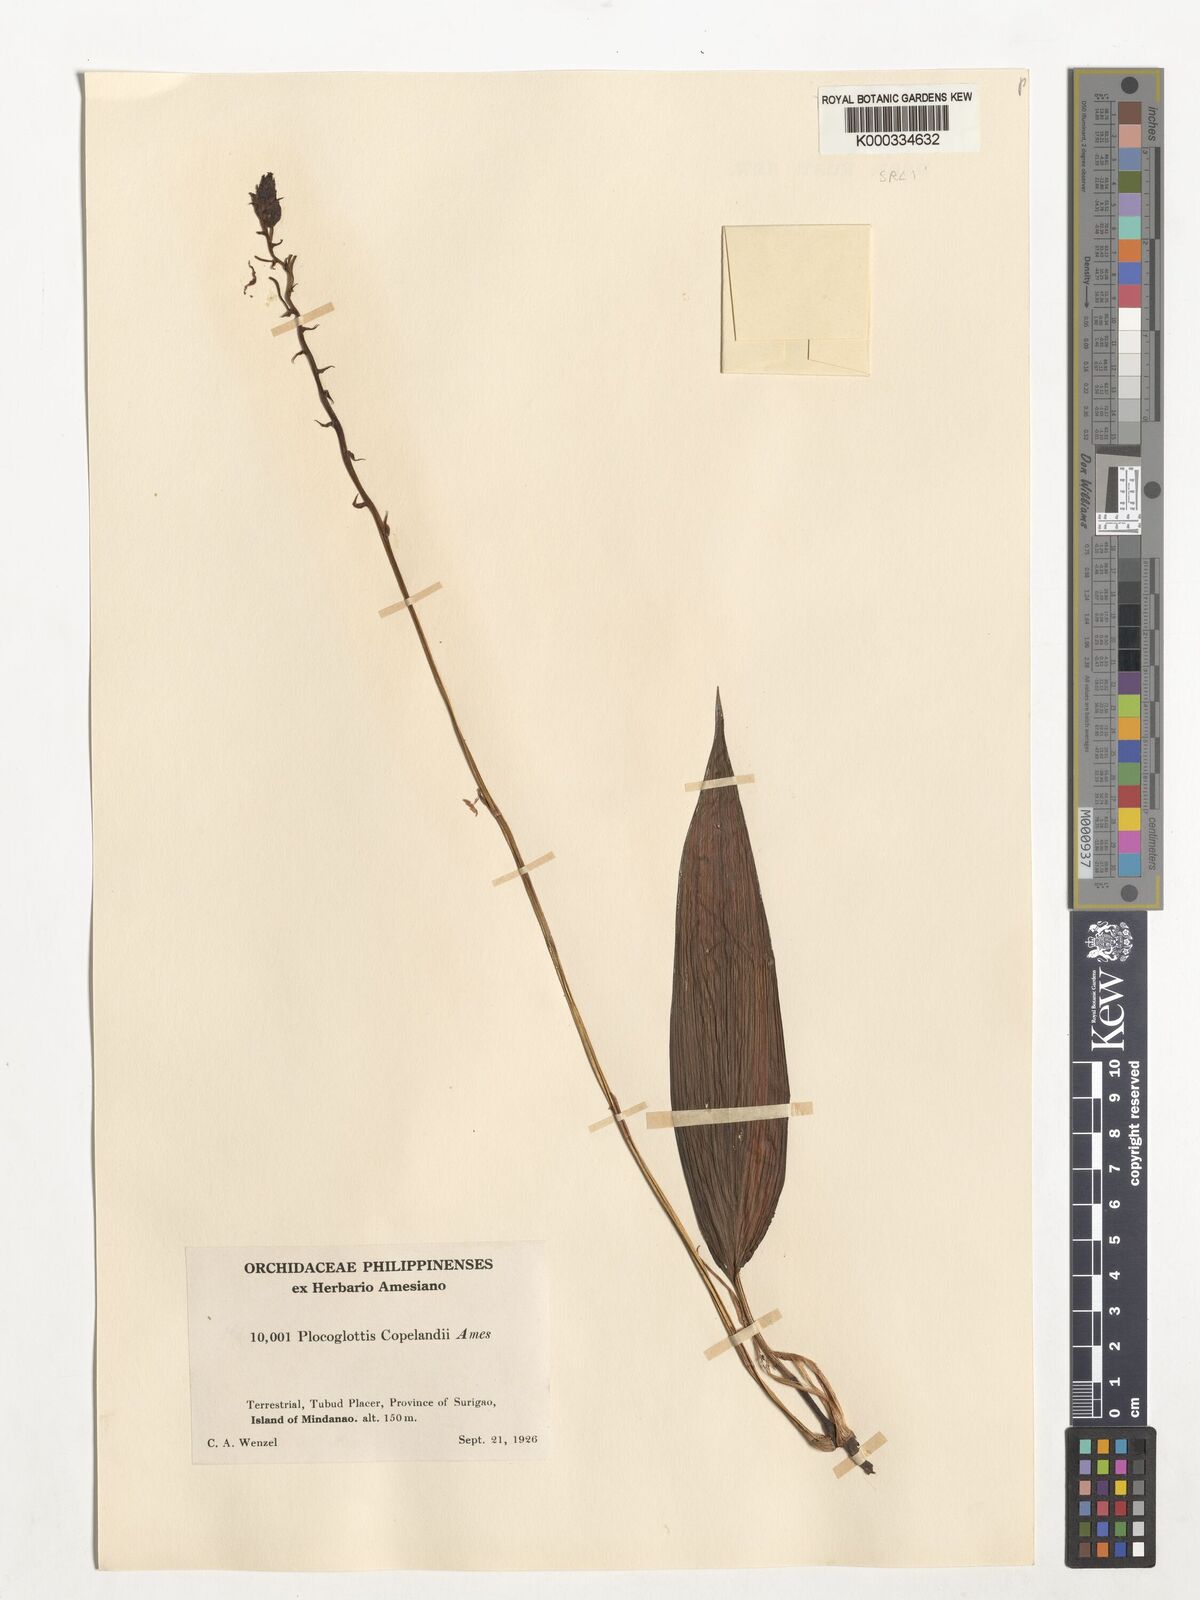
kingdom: Plantae
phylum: Tracheophyta
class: Liliopsida
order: Asparagales
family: Orchidaceae
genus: Plocoglottis
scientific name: Plocoglottis copelandii
